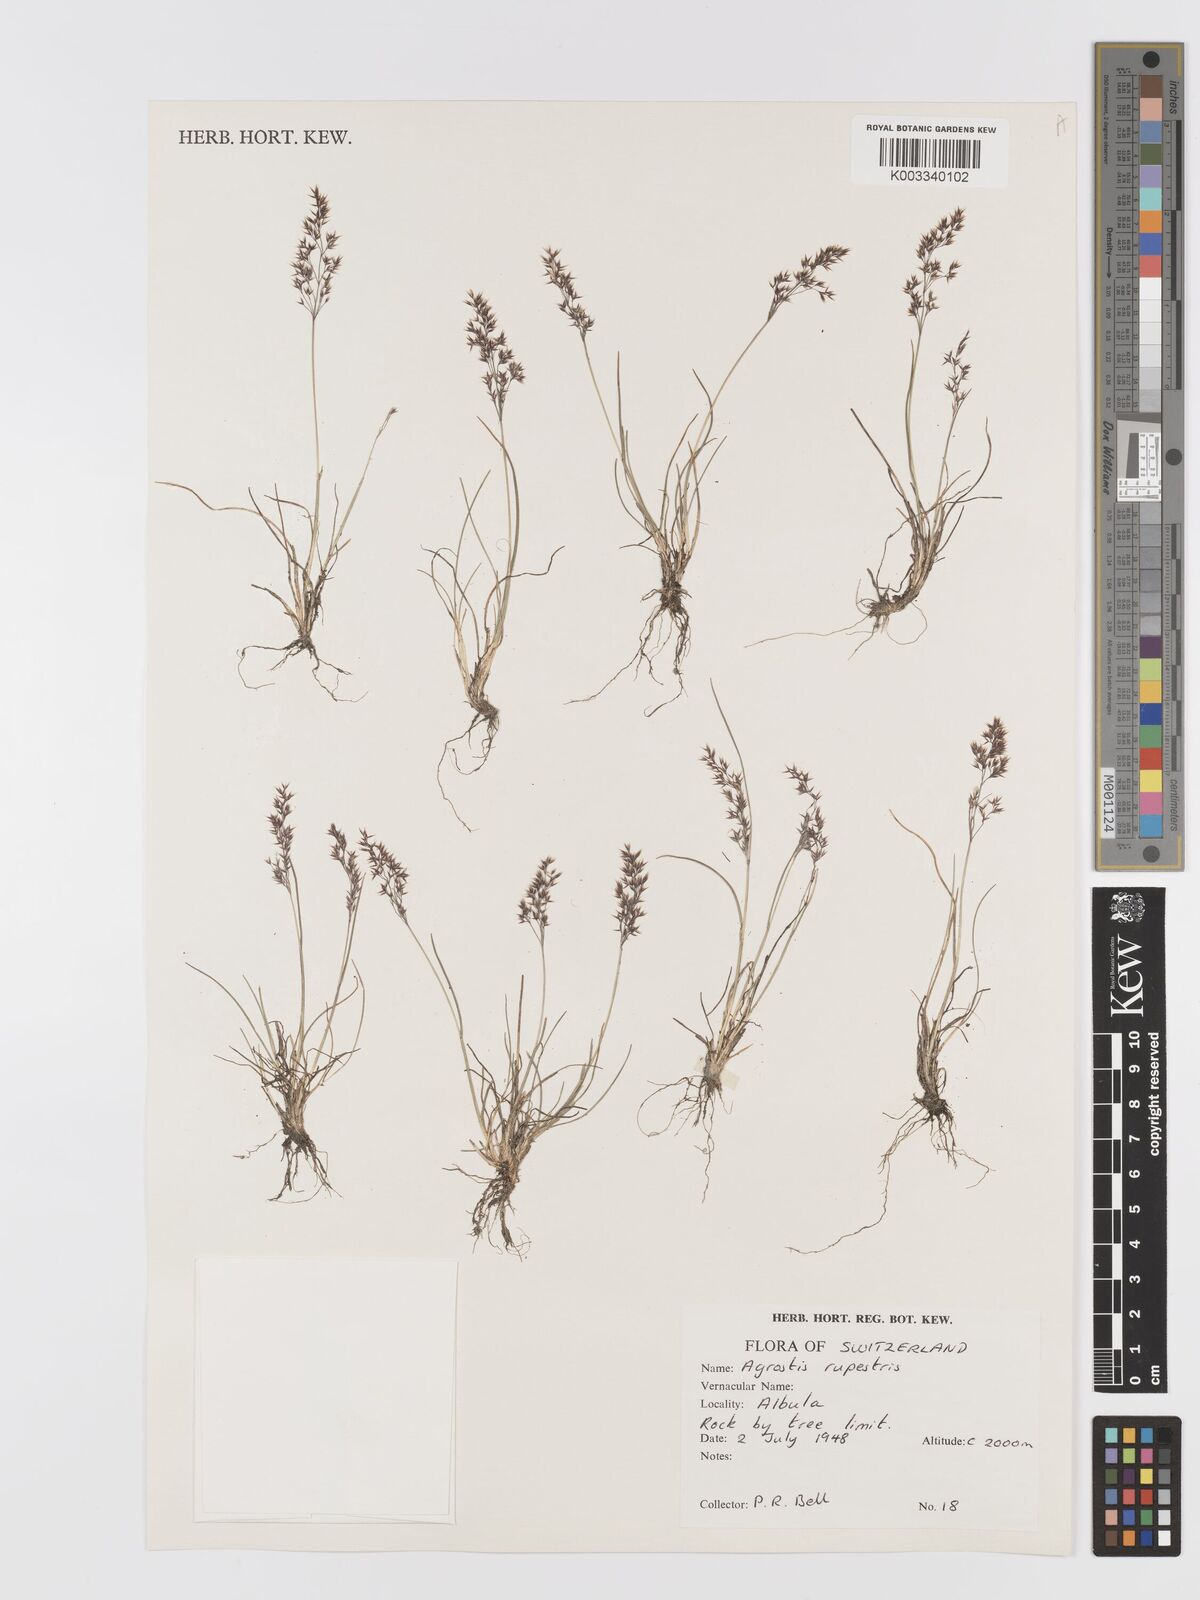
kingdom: Plantae
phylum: Tracheophyta
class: Liliopsida
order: Poales
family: Poaceae
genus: Agrostis
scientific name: Agrostis rupestris
